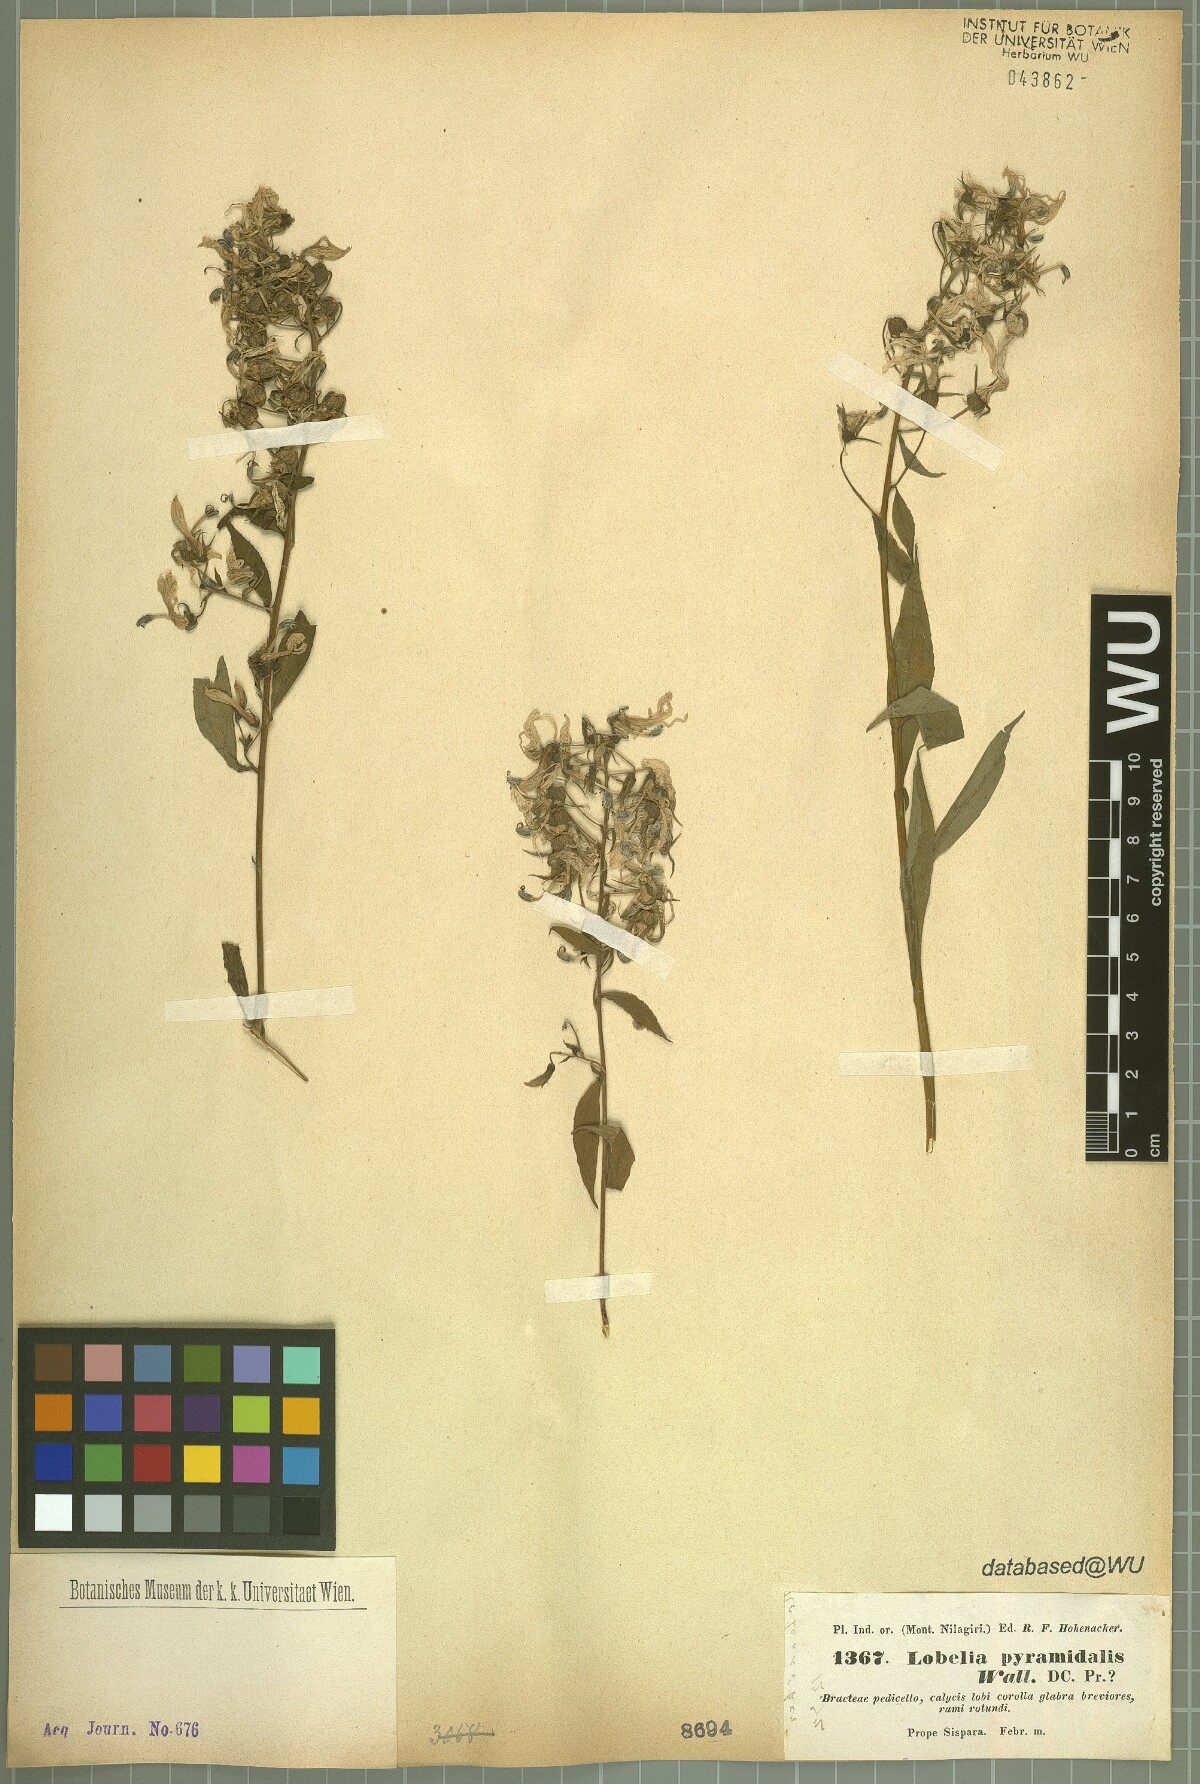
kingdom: Plantae
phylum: Tracheophyta
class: Magnoliopsida
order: Asterales
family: Campanulaceae
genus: Lobelia
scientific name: Lobelia pyramidalis
